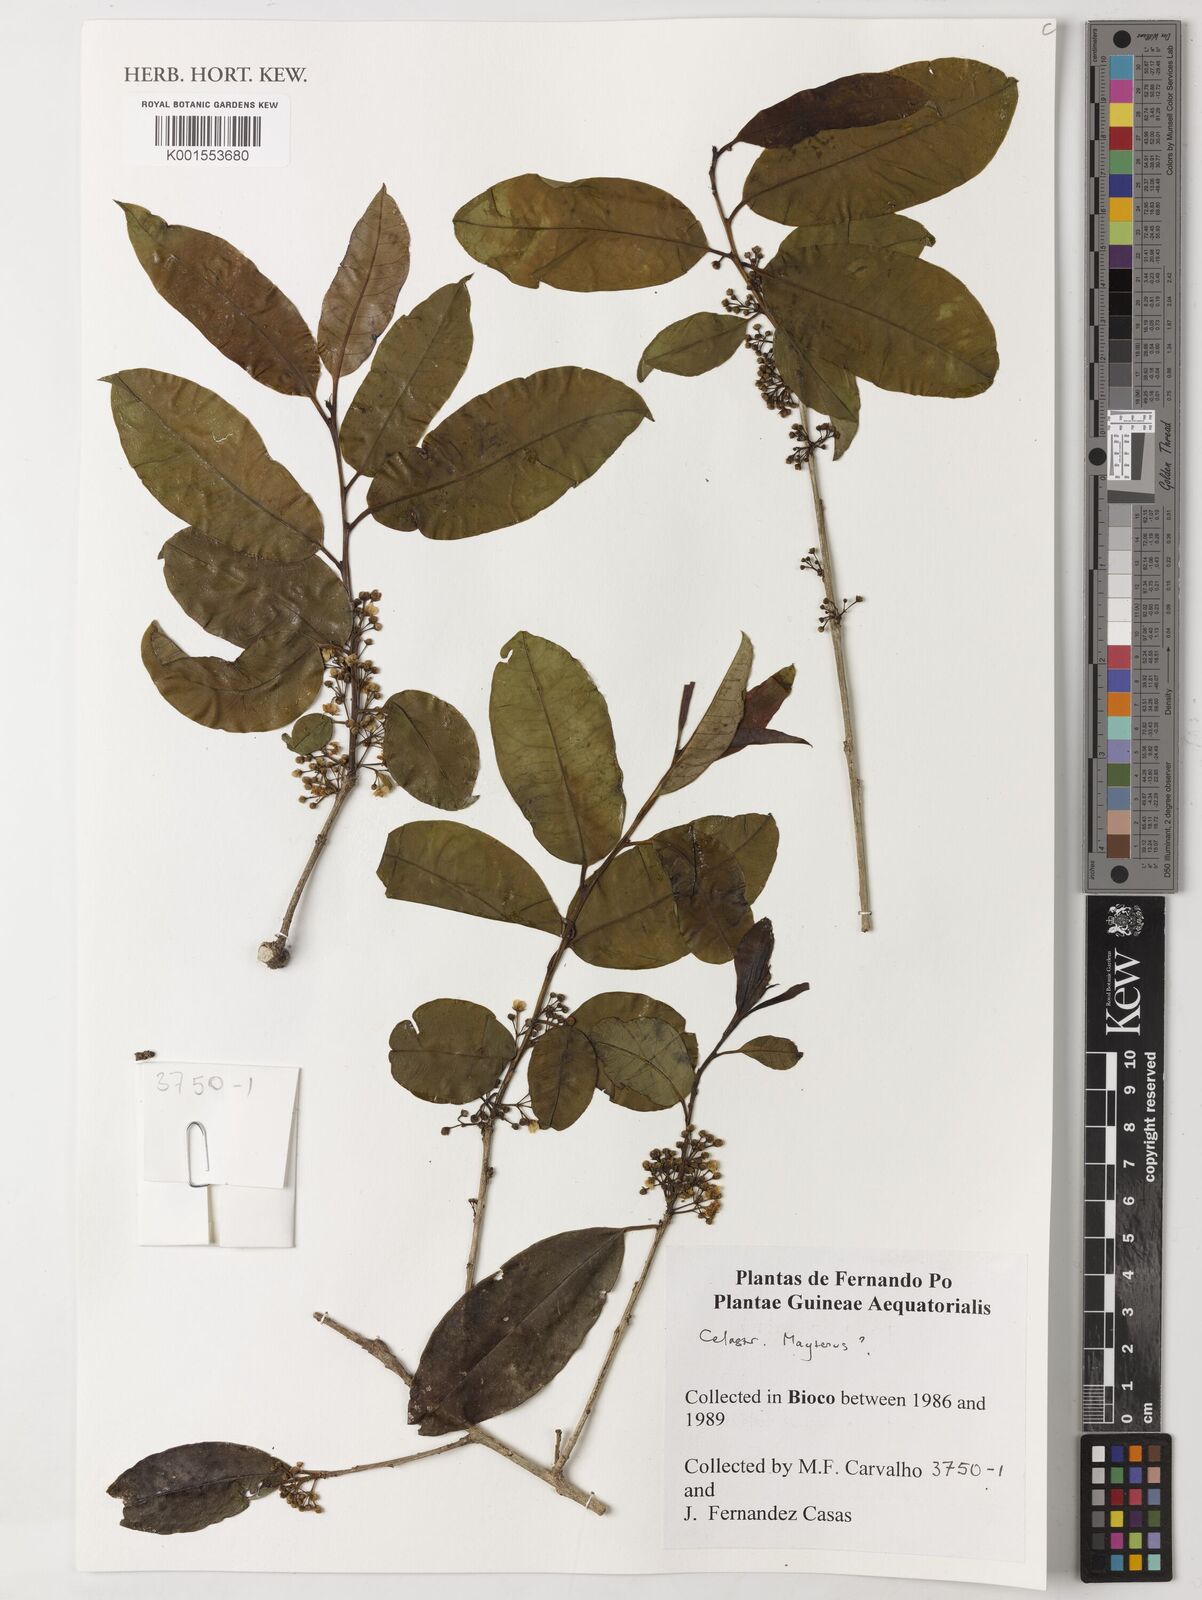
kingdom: Plantae
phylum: Tracheophyta
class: Magnoliopsida
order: Celastrales
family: Celastraceae
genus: Maytenus
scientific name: Maytenus
